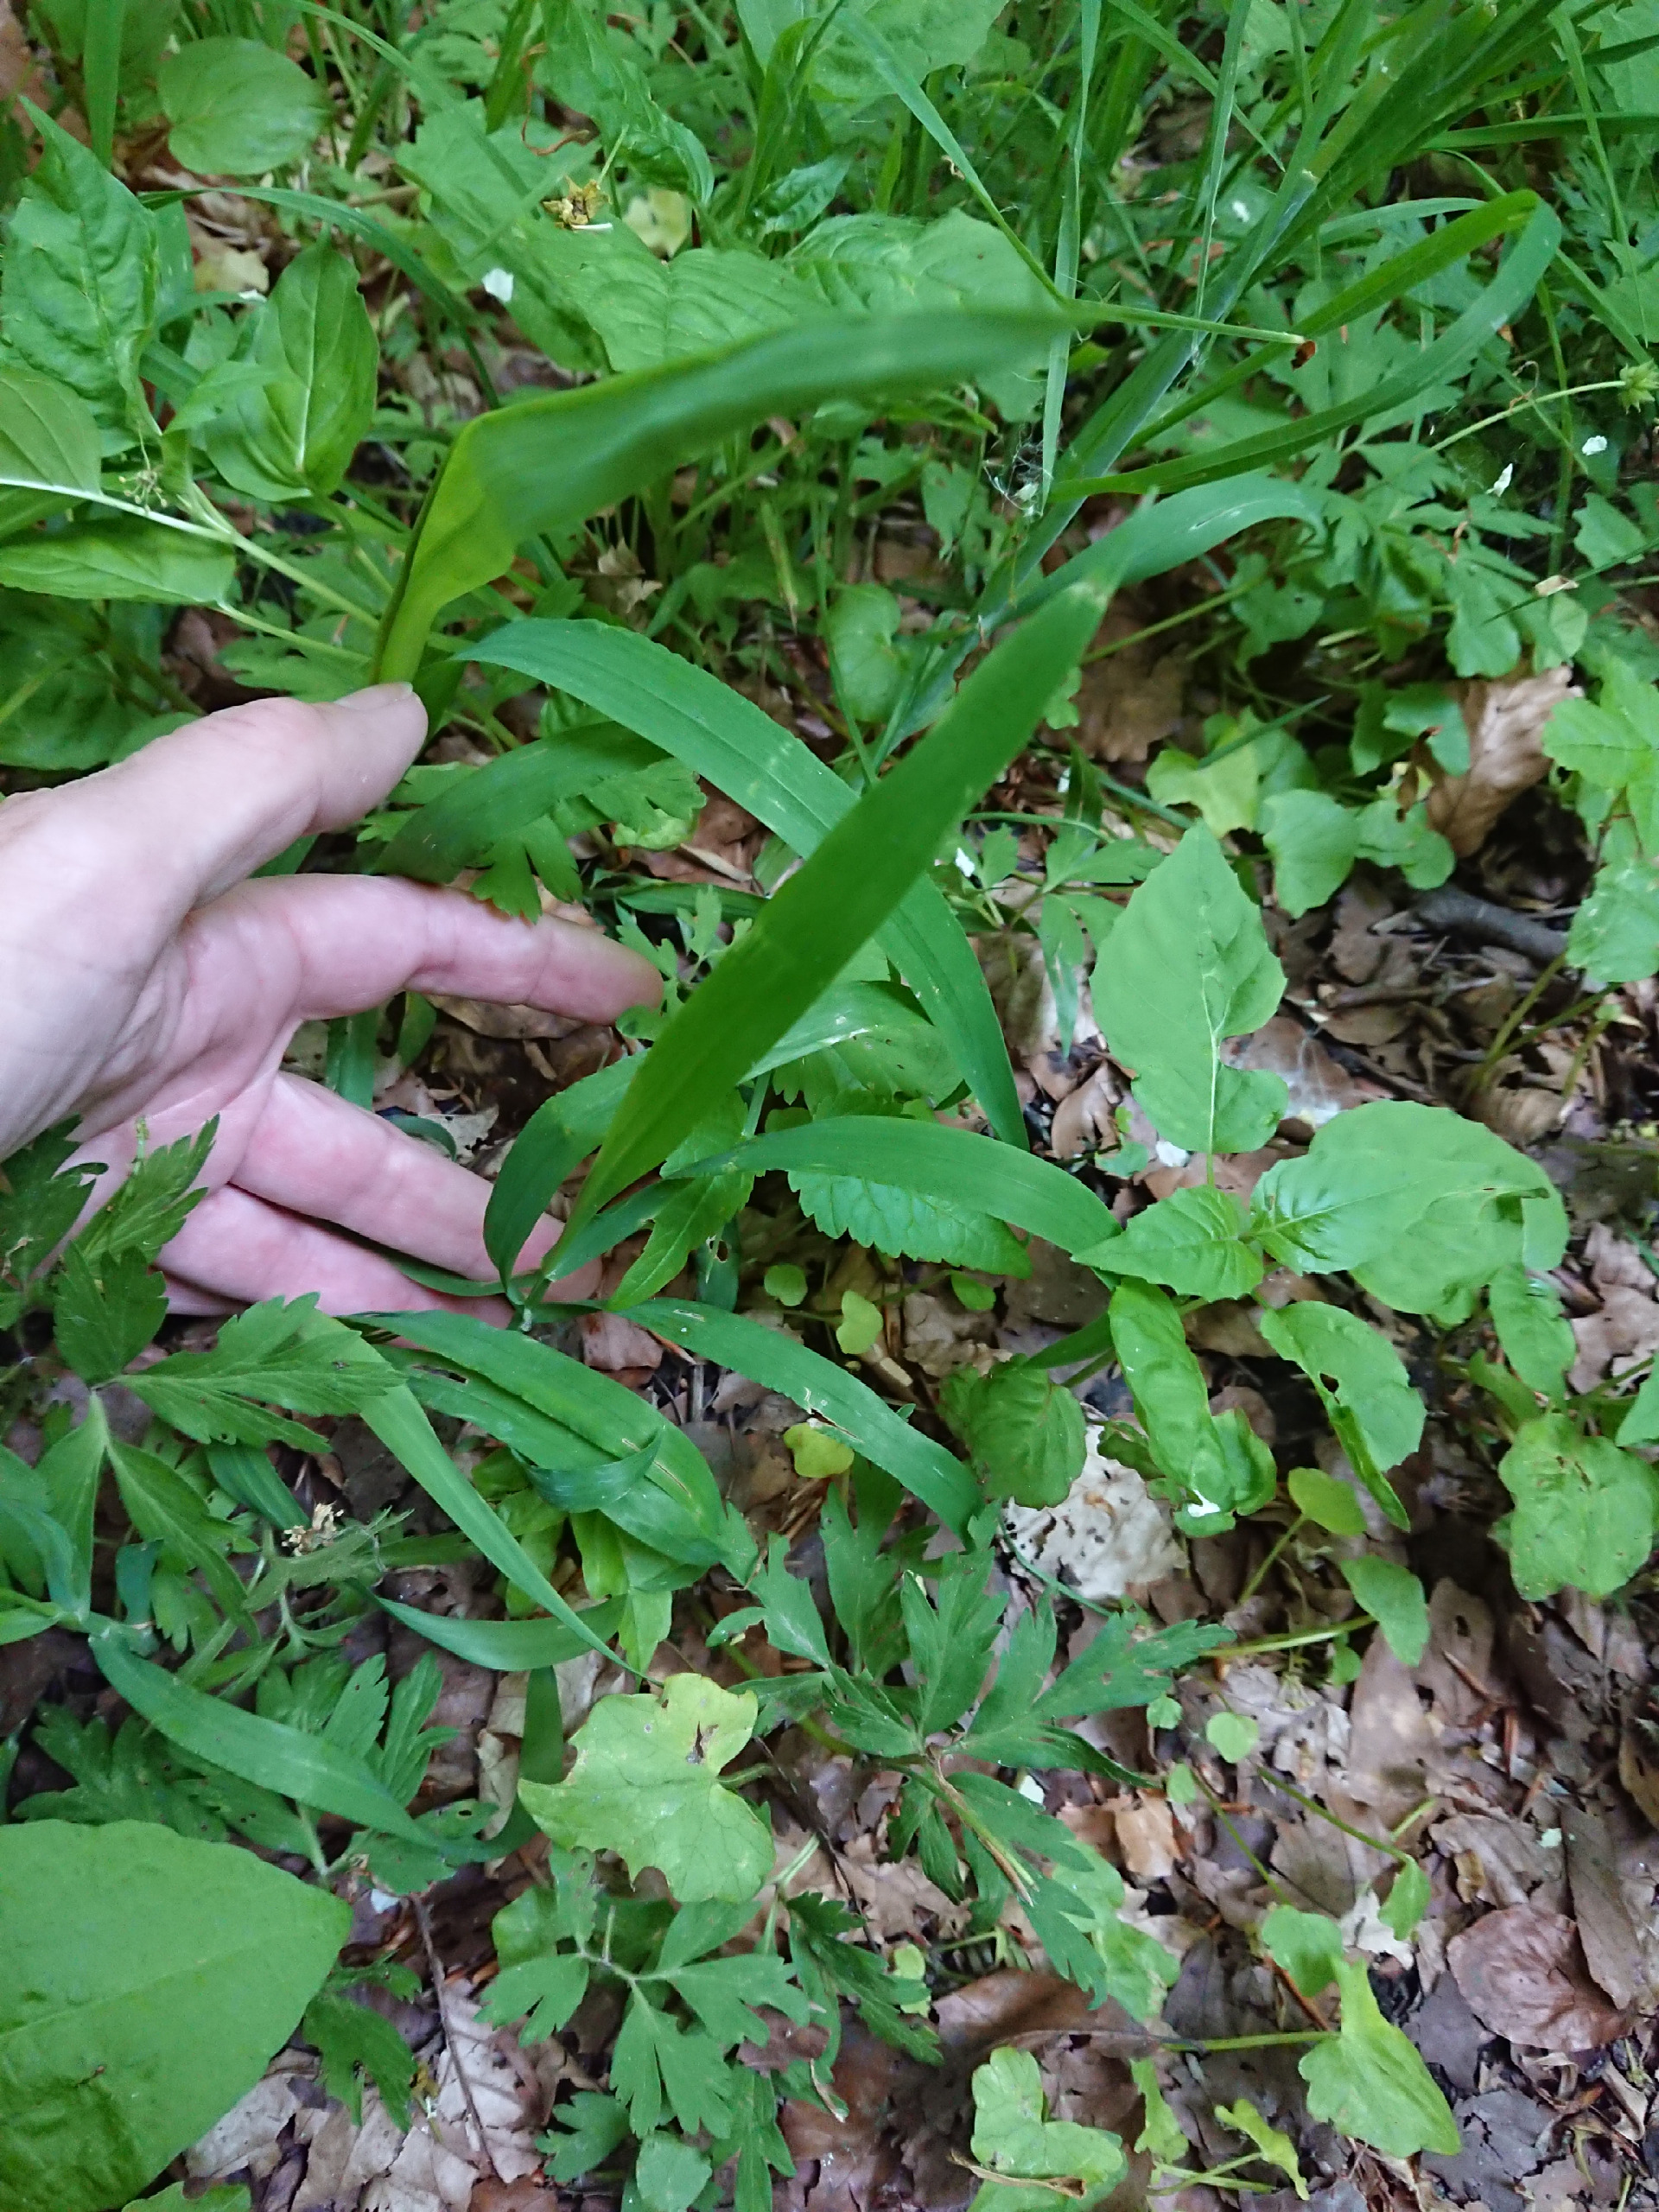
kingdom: Plantae
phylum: Tracheophyta
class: Liliopsida
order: Poales
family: Poaceae
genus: Milium
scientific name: Milium effusum
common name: Miliegræs
